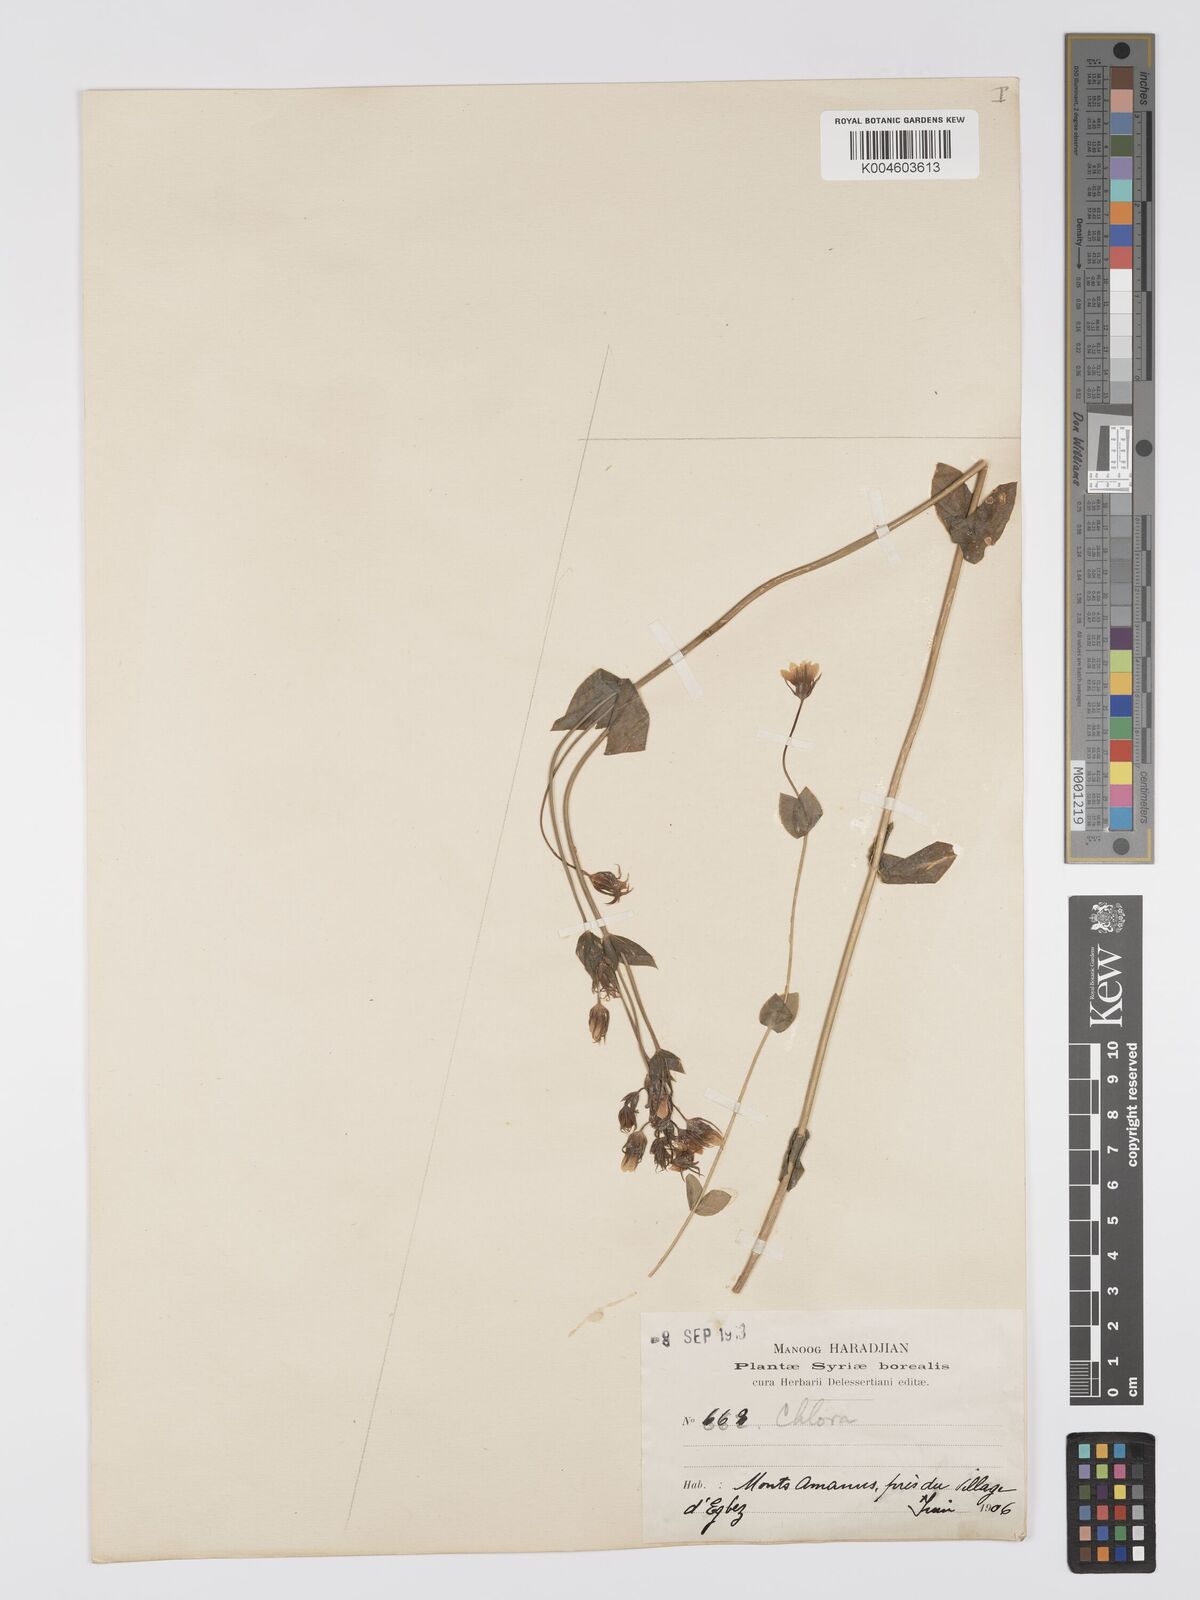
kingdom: Plantae
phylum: Tracheophyta
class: Magnoliopsida
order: Gentianales
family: Gentianaceae
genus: Blackstonia
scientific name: Blackstonia acuminata
